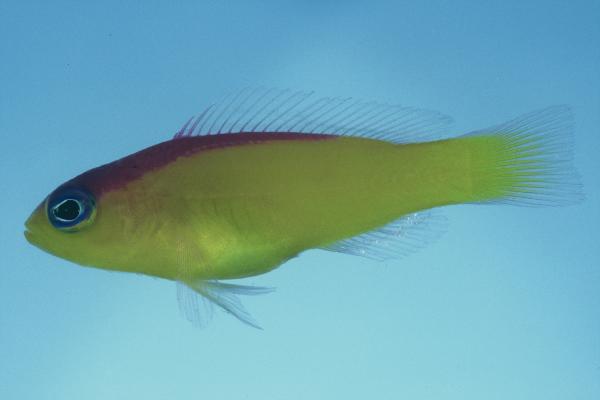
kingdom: Animalia
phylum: Chordata
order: Perciformes
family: Pseudochromidae
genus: Pictichromis
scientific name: Pictichromis diadema
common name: Diadem dottyback
